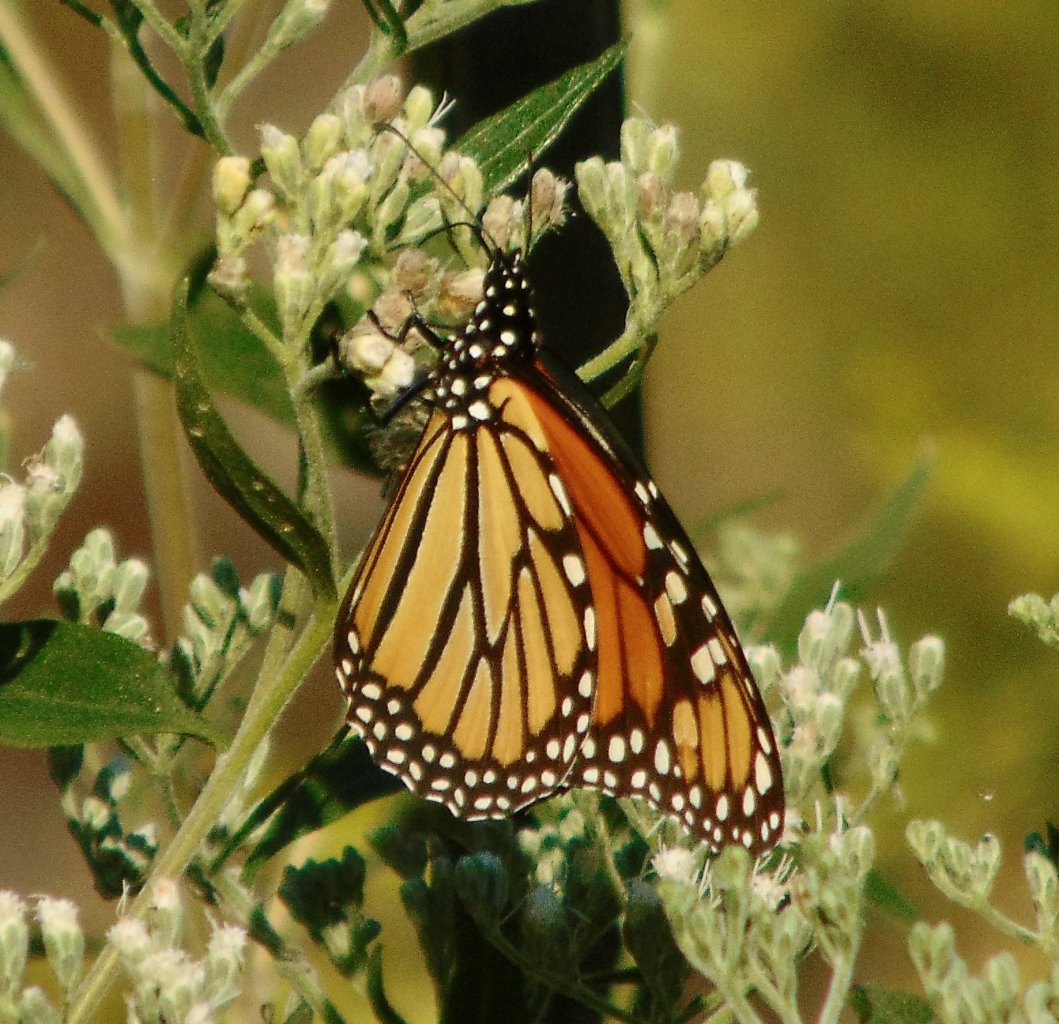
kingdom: Animalia
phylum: Arthropoda
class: Insecta
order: Lepidoptera
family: Nymphalidae
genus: Danaus
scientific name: Danaus plexippus
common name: Monarch
